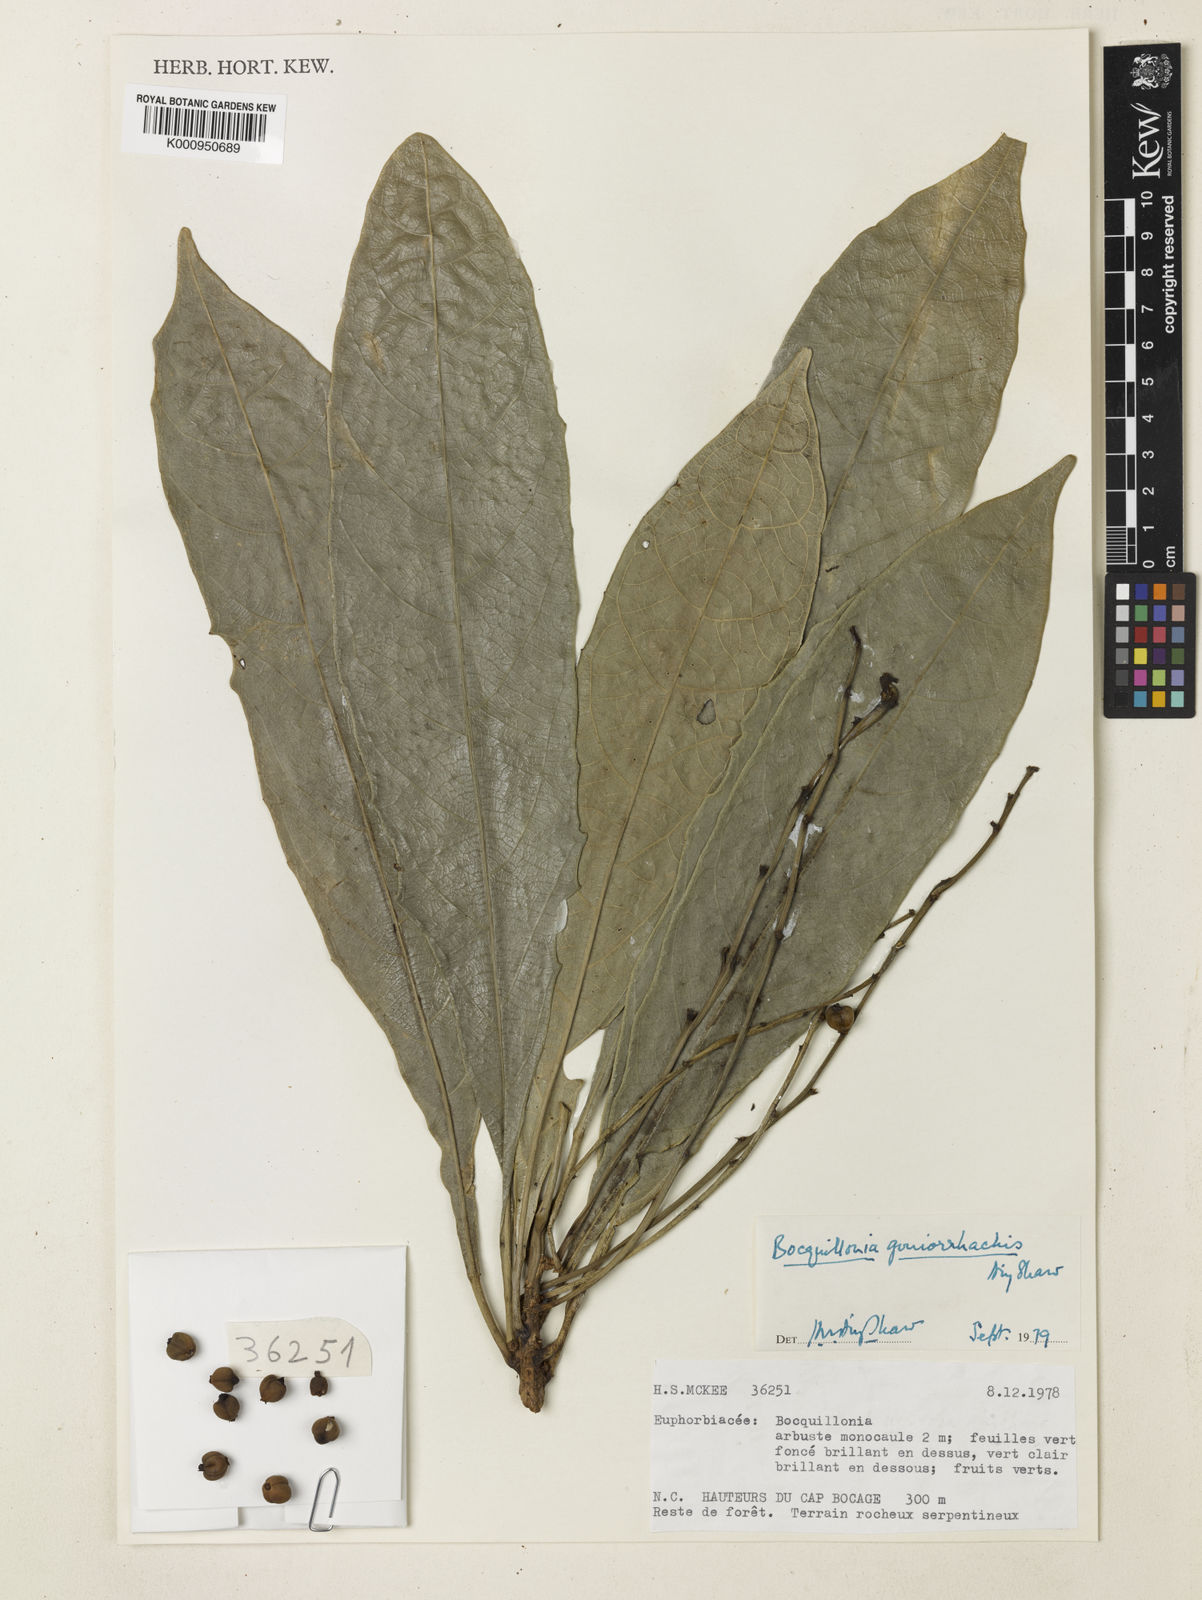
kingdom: Plantae
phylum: Tracheophyta
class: Magnoliopsida
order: Malpighiales
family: Euphorbiaceae
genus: Bocquillonia
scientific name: Bocquillonia goniorrhachis
